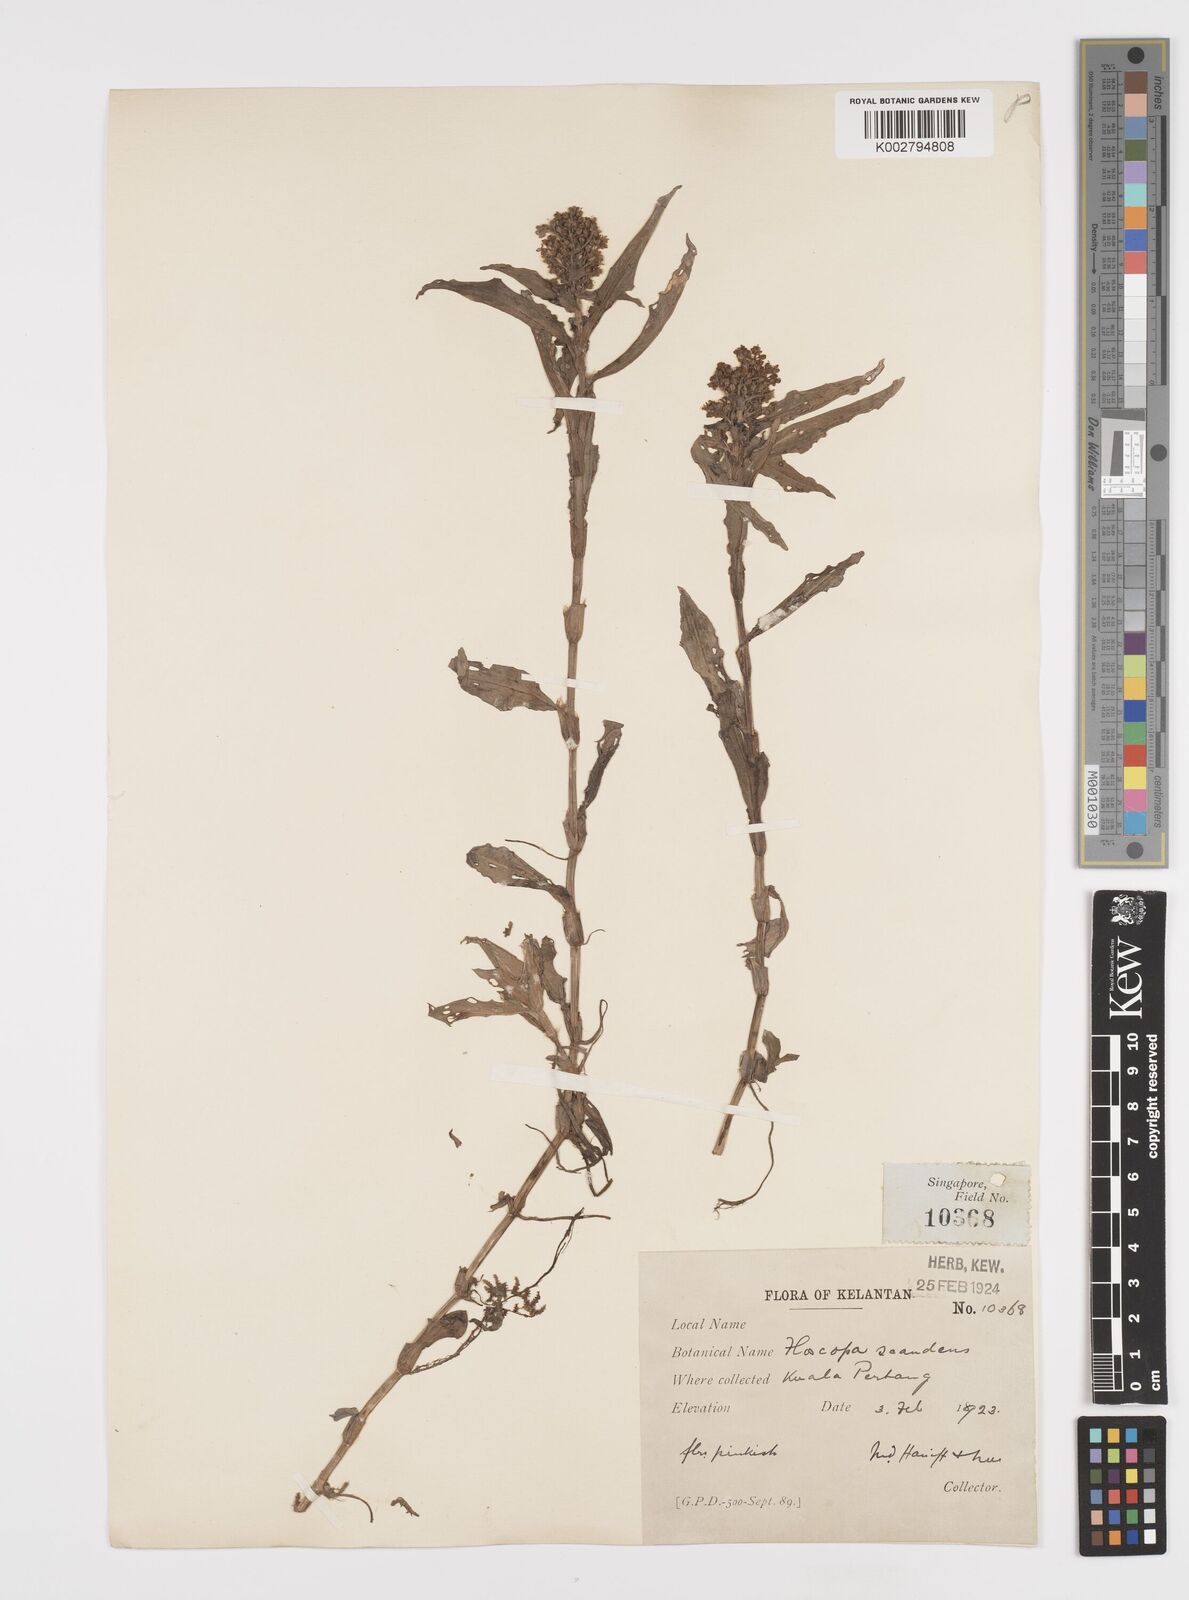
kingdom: Plantae
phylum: Tracheophyta
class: Liliopsida
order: Commelinales
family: Commelinaceae
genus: Floscopa
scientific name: Floscopa scandens
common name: Climbing flower cup
